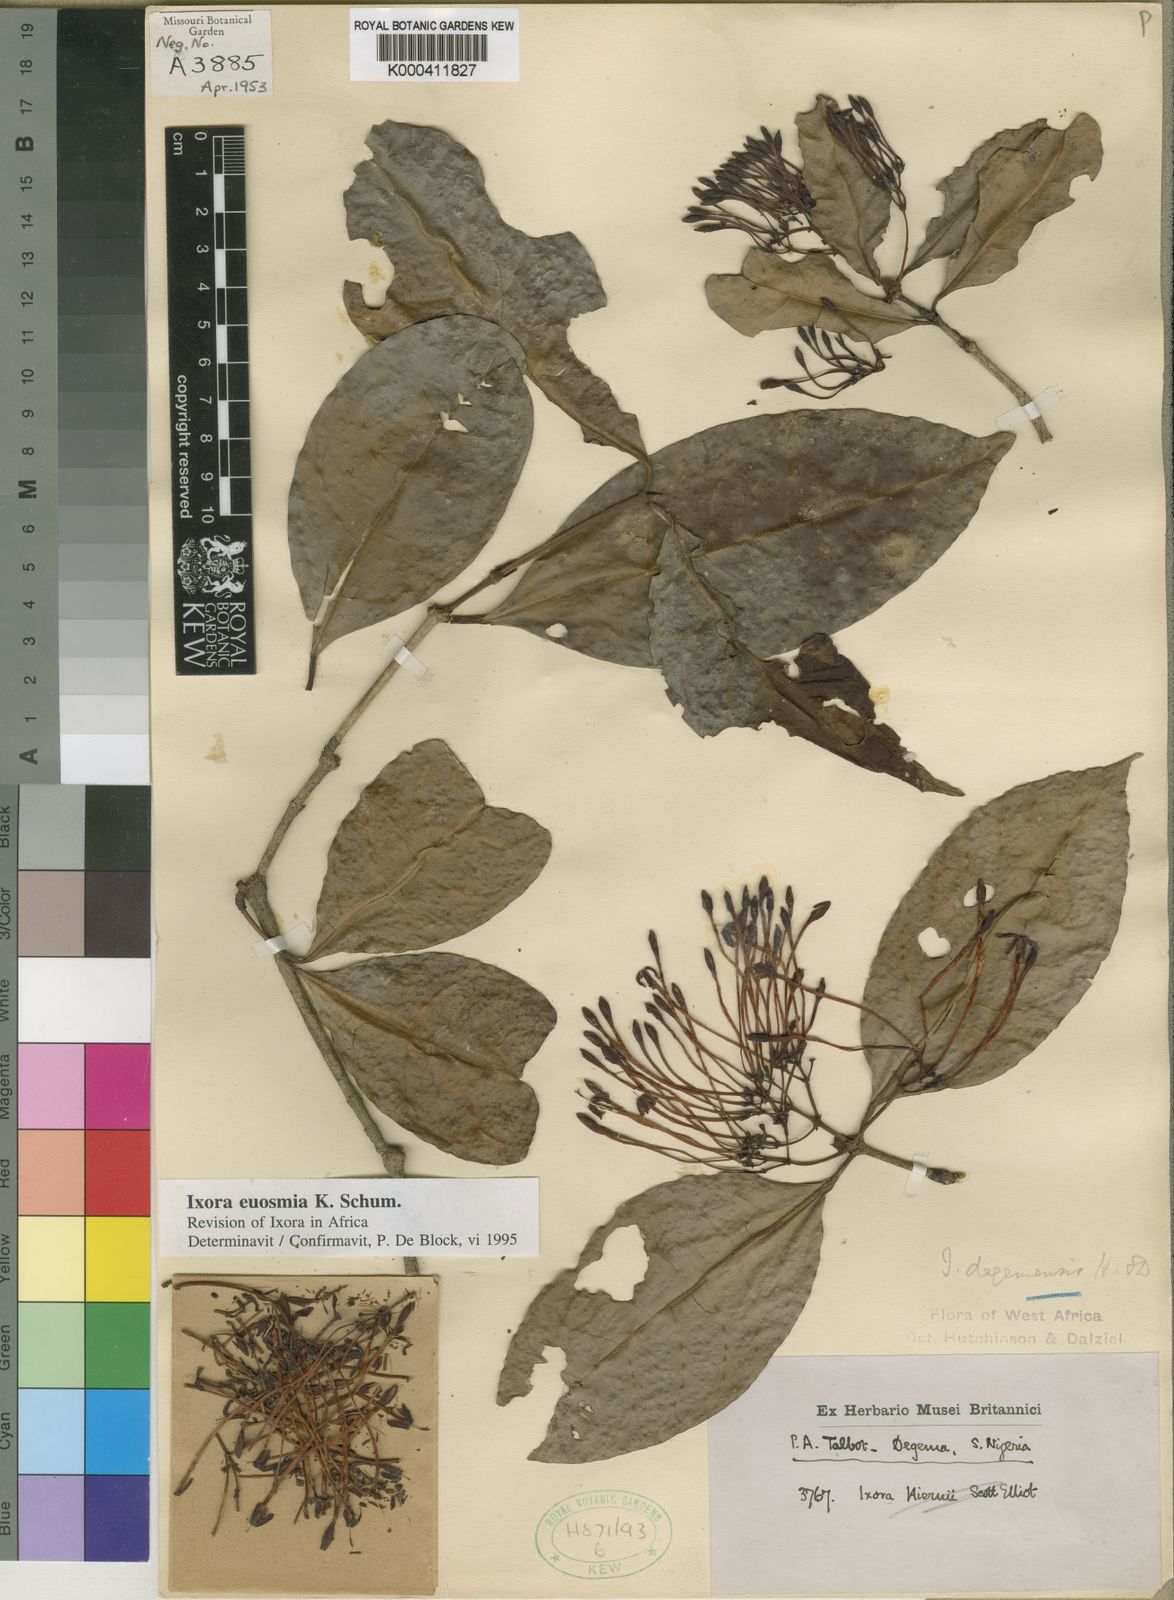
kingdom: Plantae
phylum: Tracheophyta
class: Magnoliopsida
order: Gentianales
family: Rubiaceae
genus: Ixora
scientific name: Ixora euosmia
